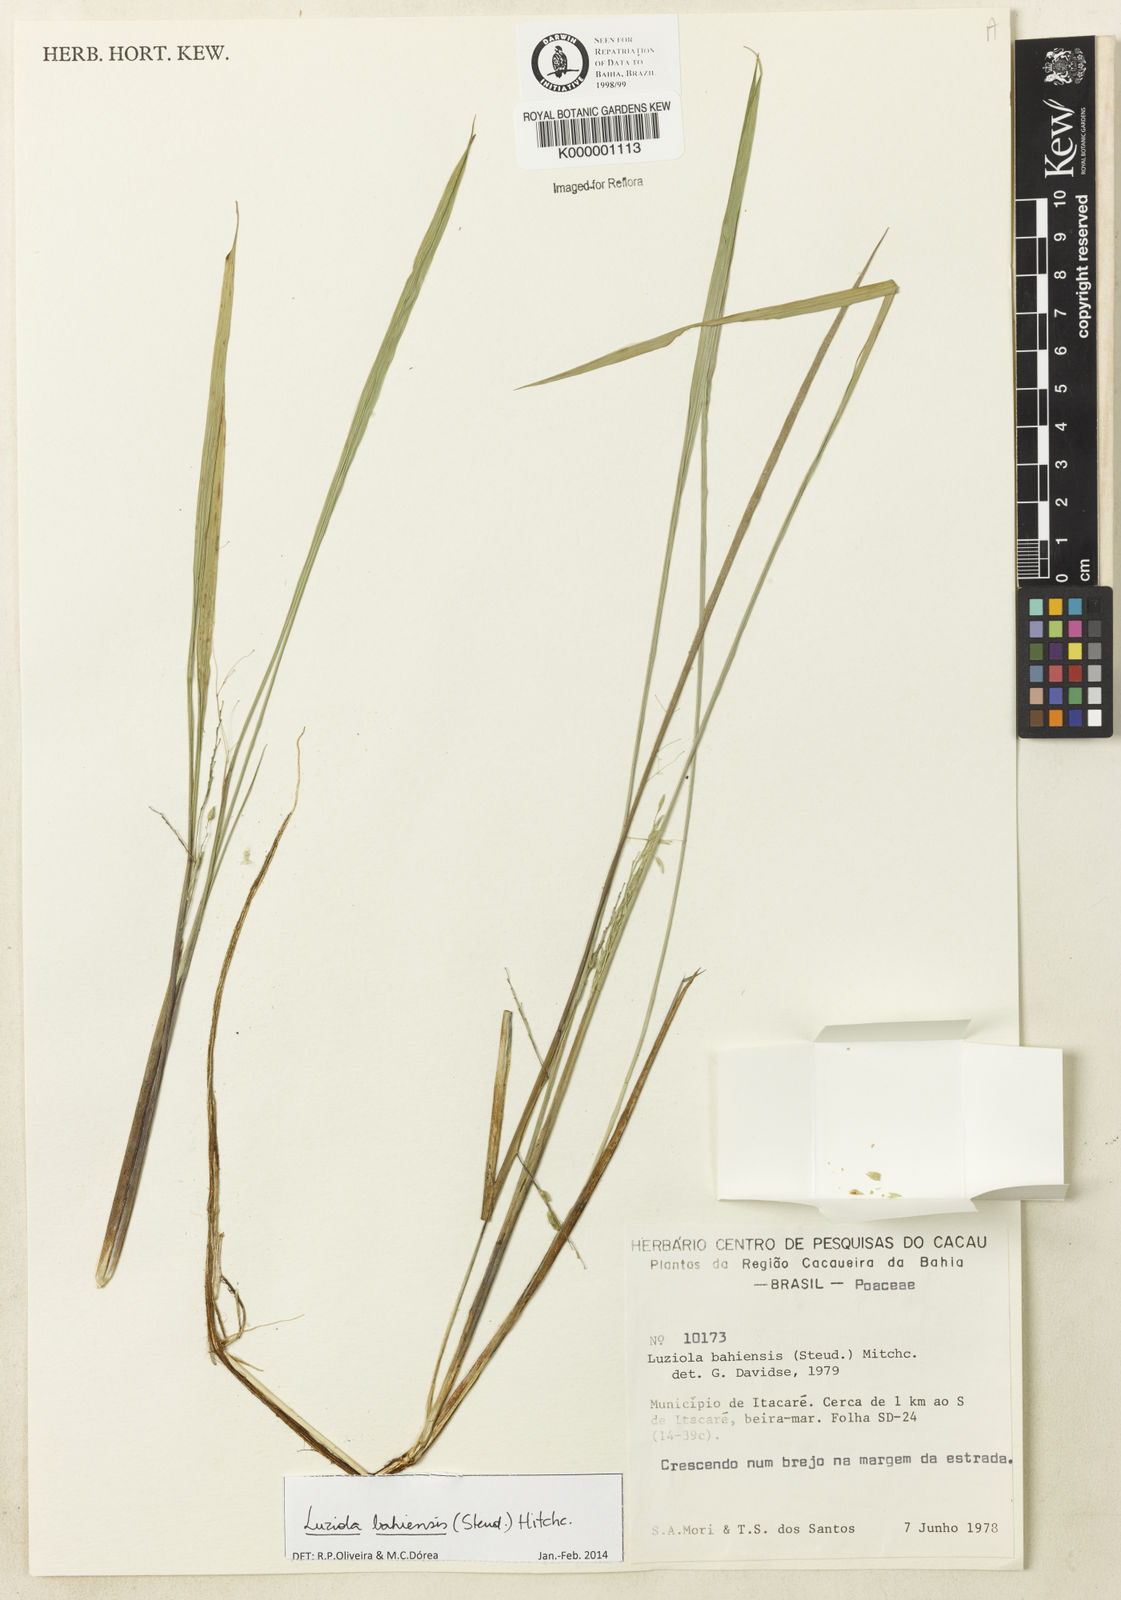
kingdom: Plantae
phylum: Tracheophyta
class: Liliopsida
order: Poales
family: Poaceae
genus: Luziola
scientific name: Luziola bahiensis
